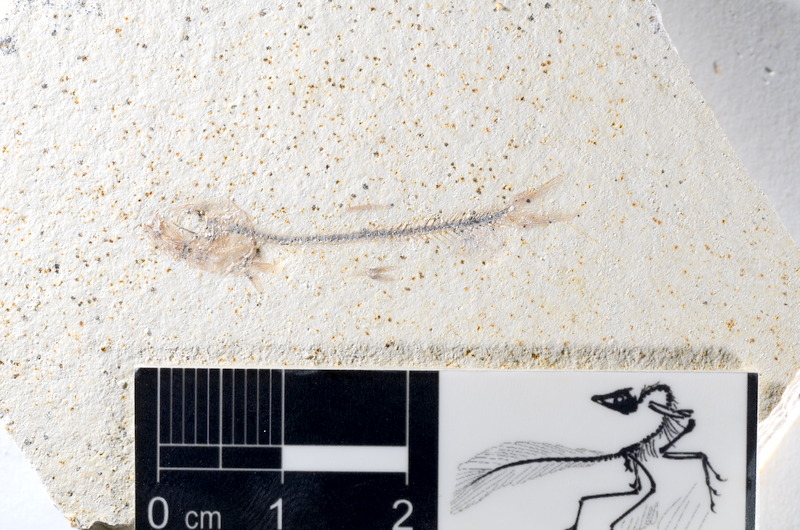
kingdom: Animalia
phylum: Chordata
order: Salmoniformes
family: Orthogonikleithridae
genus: Orthogonikleithrus
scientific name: Orthogonikleithrus hoelli
